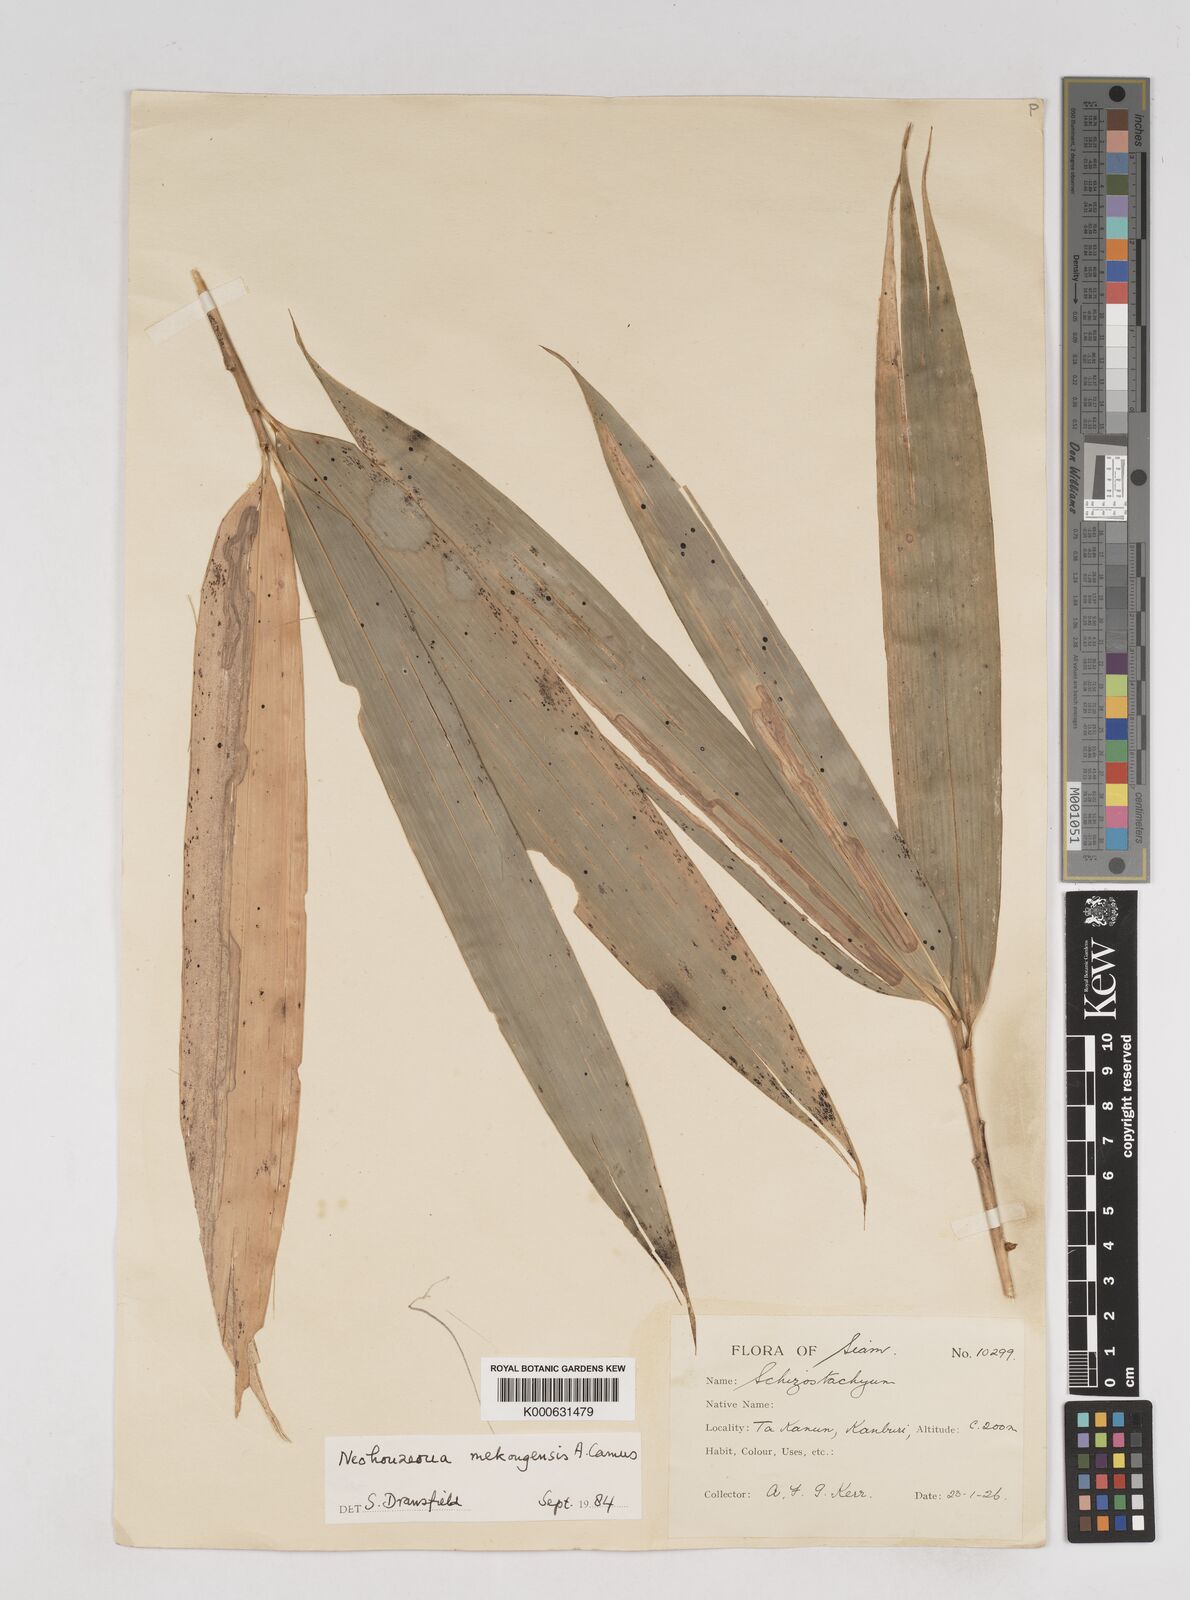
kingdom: Plantae
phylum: Tracheophyta
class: Liliopsida
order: Poales
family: Poaceae
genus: Schizostachyum
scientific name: Schizostachyum mekongensis
